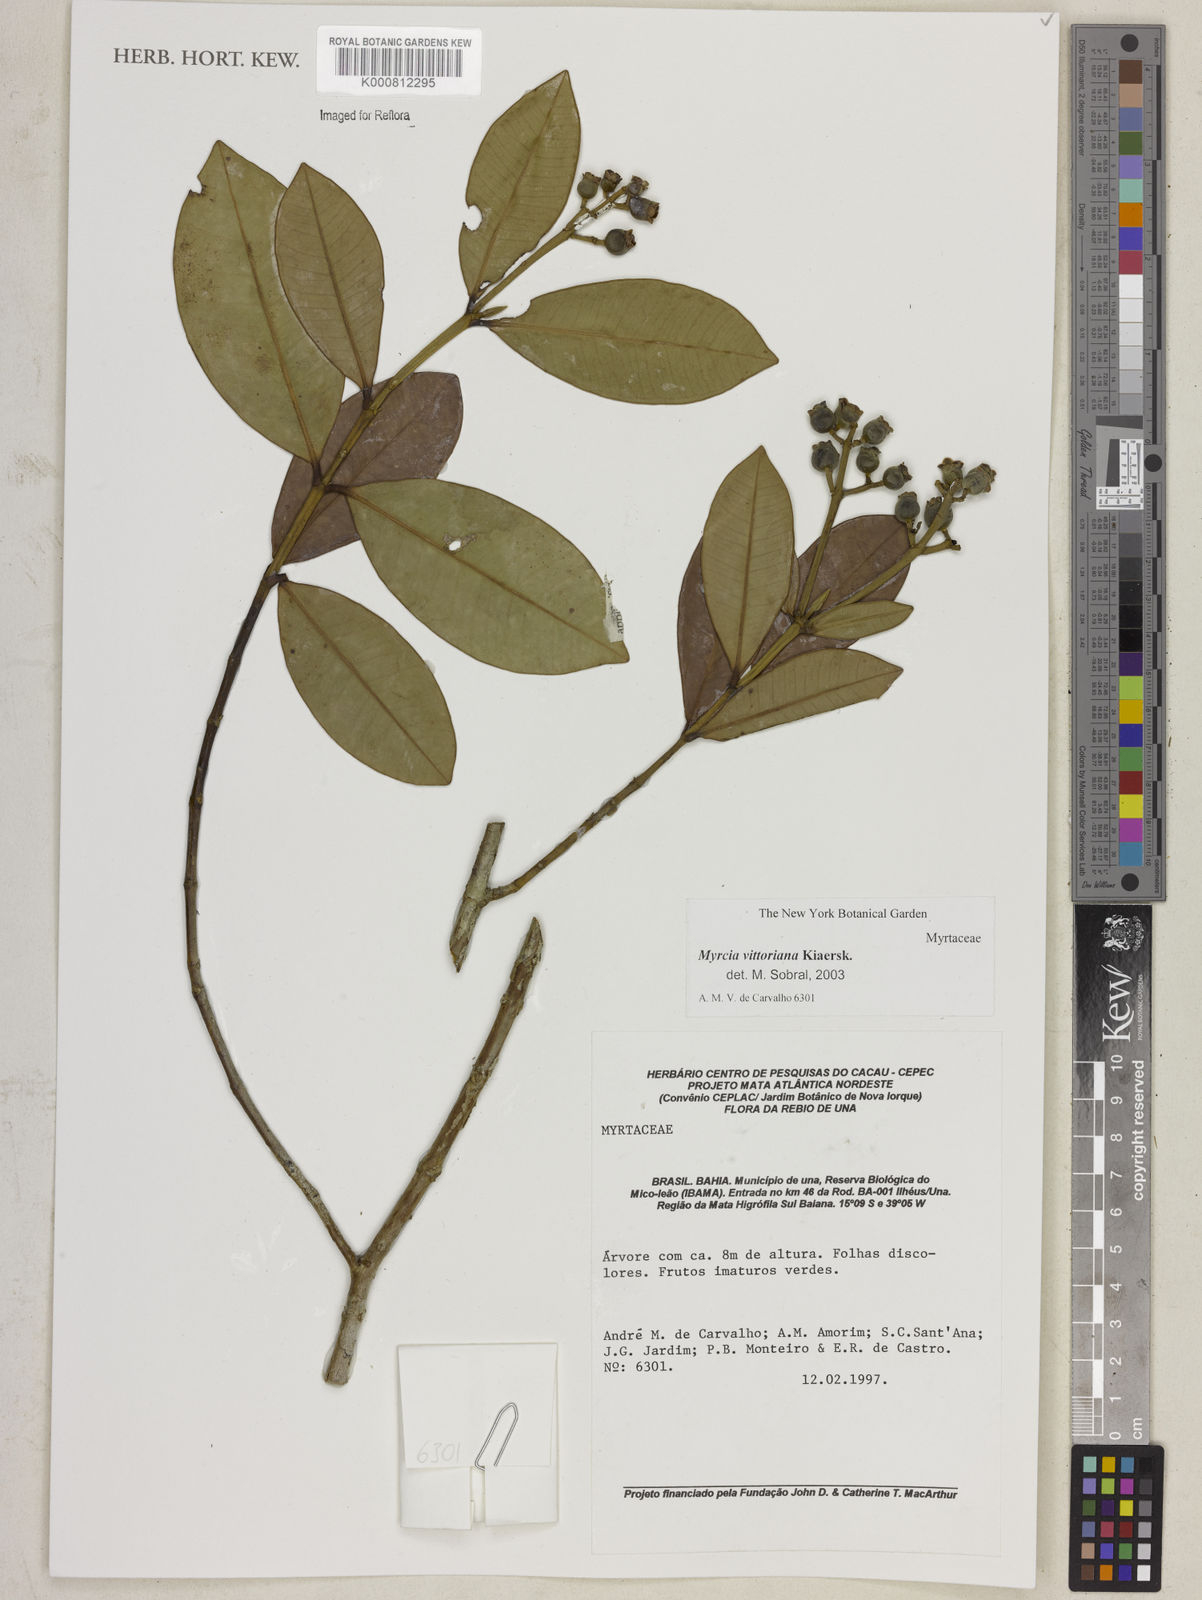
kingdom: Plantae
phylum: Tracheophyta
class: Magnoliopsida
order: Myrtales
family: Myrtaceae
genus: Myrcia
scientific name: Myrcia vittoriana
